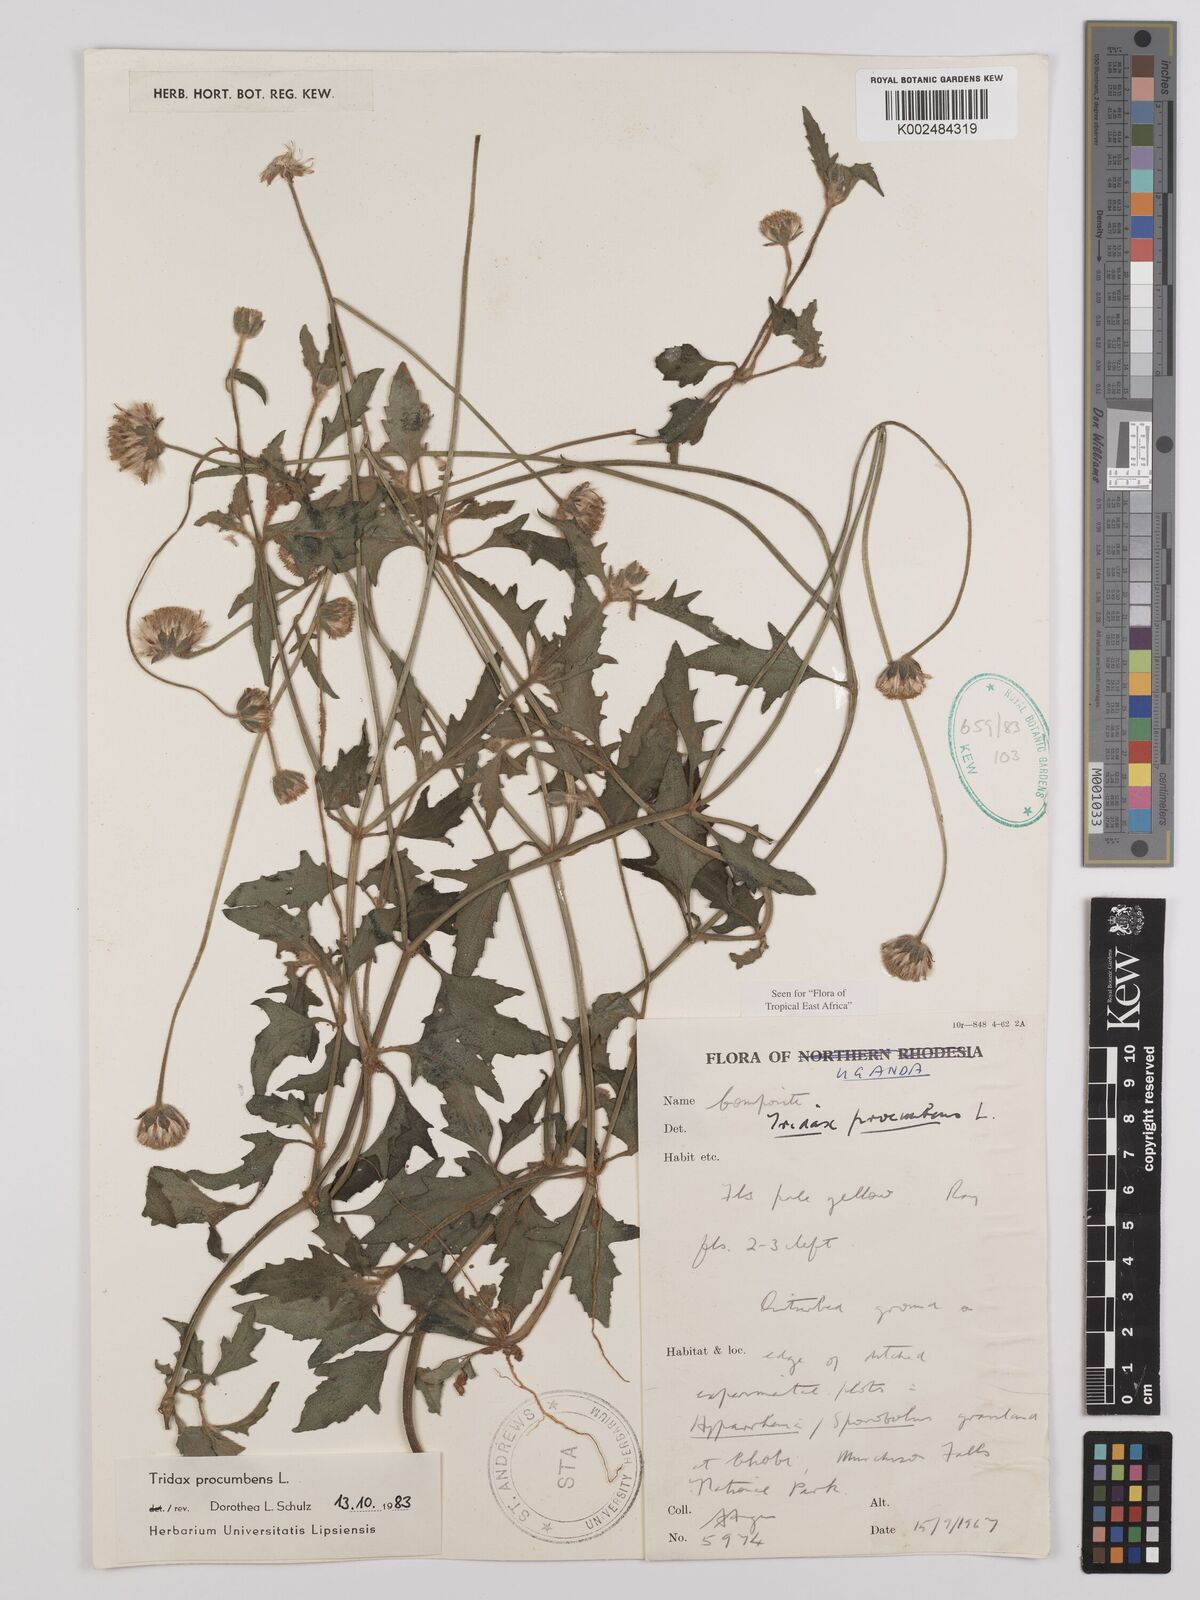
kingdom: Plantae
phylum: Tracheophyta
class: Magnoliopsida
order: Asterales
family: Asteraceae
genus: Tridax
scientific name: Tridax procumbens
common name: Coatbuttons
